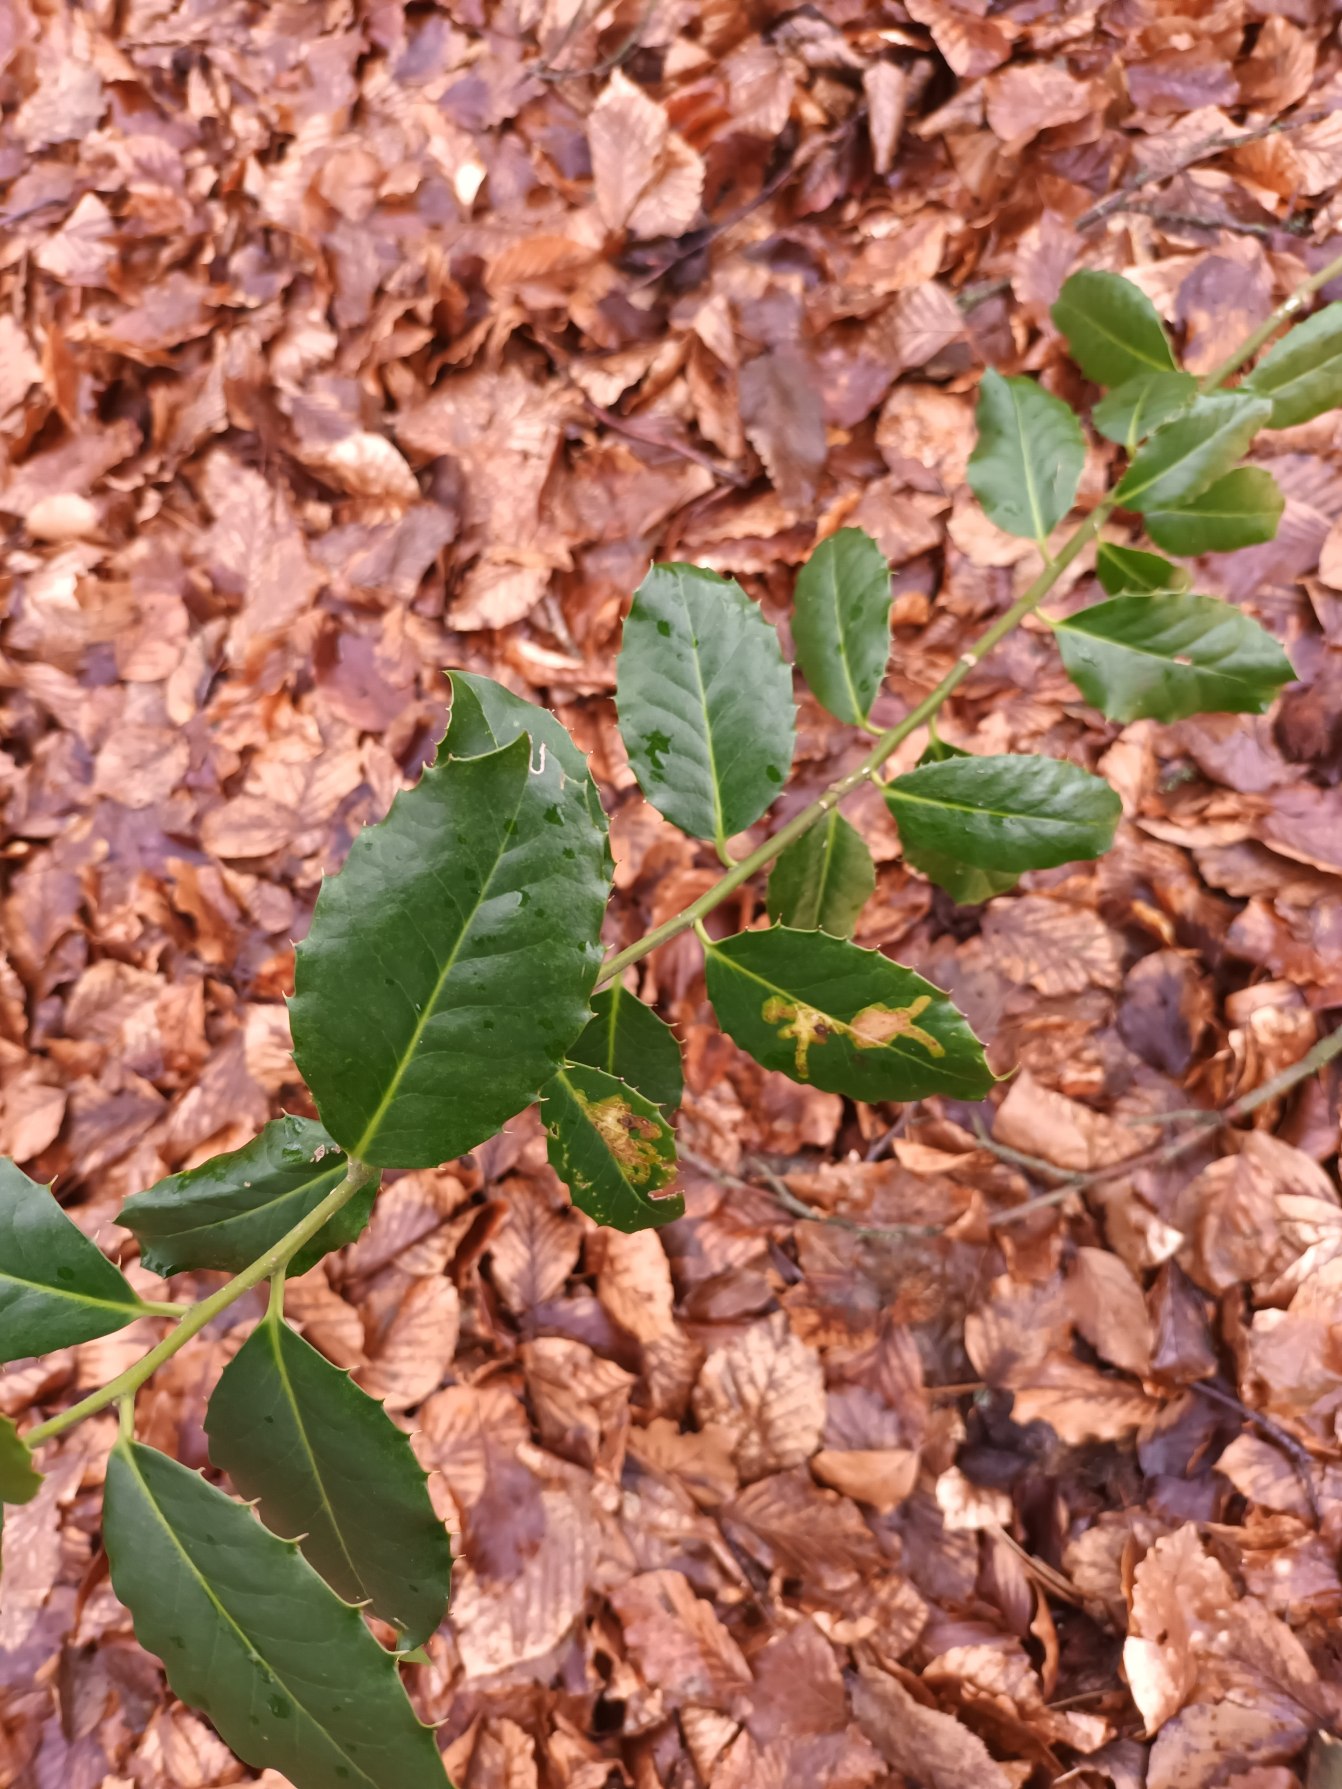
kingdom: Plantae
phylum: Tracheophyta
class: Magnoliopsida
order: Aquifoliales
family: Aquifoliaceae
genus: Ilex
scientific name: Ilex altaclerensis
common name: Storbladet kristtorn
